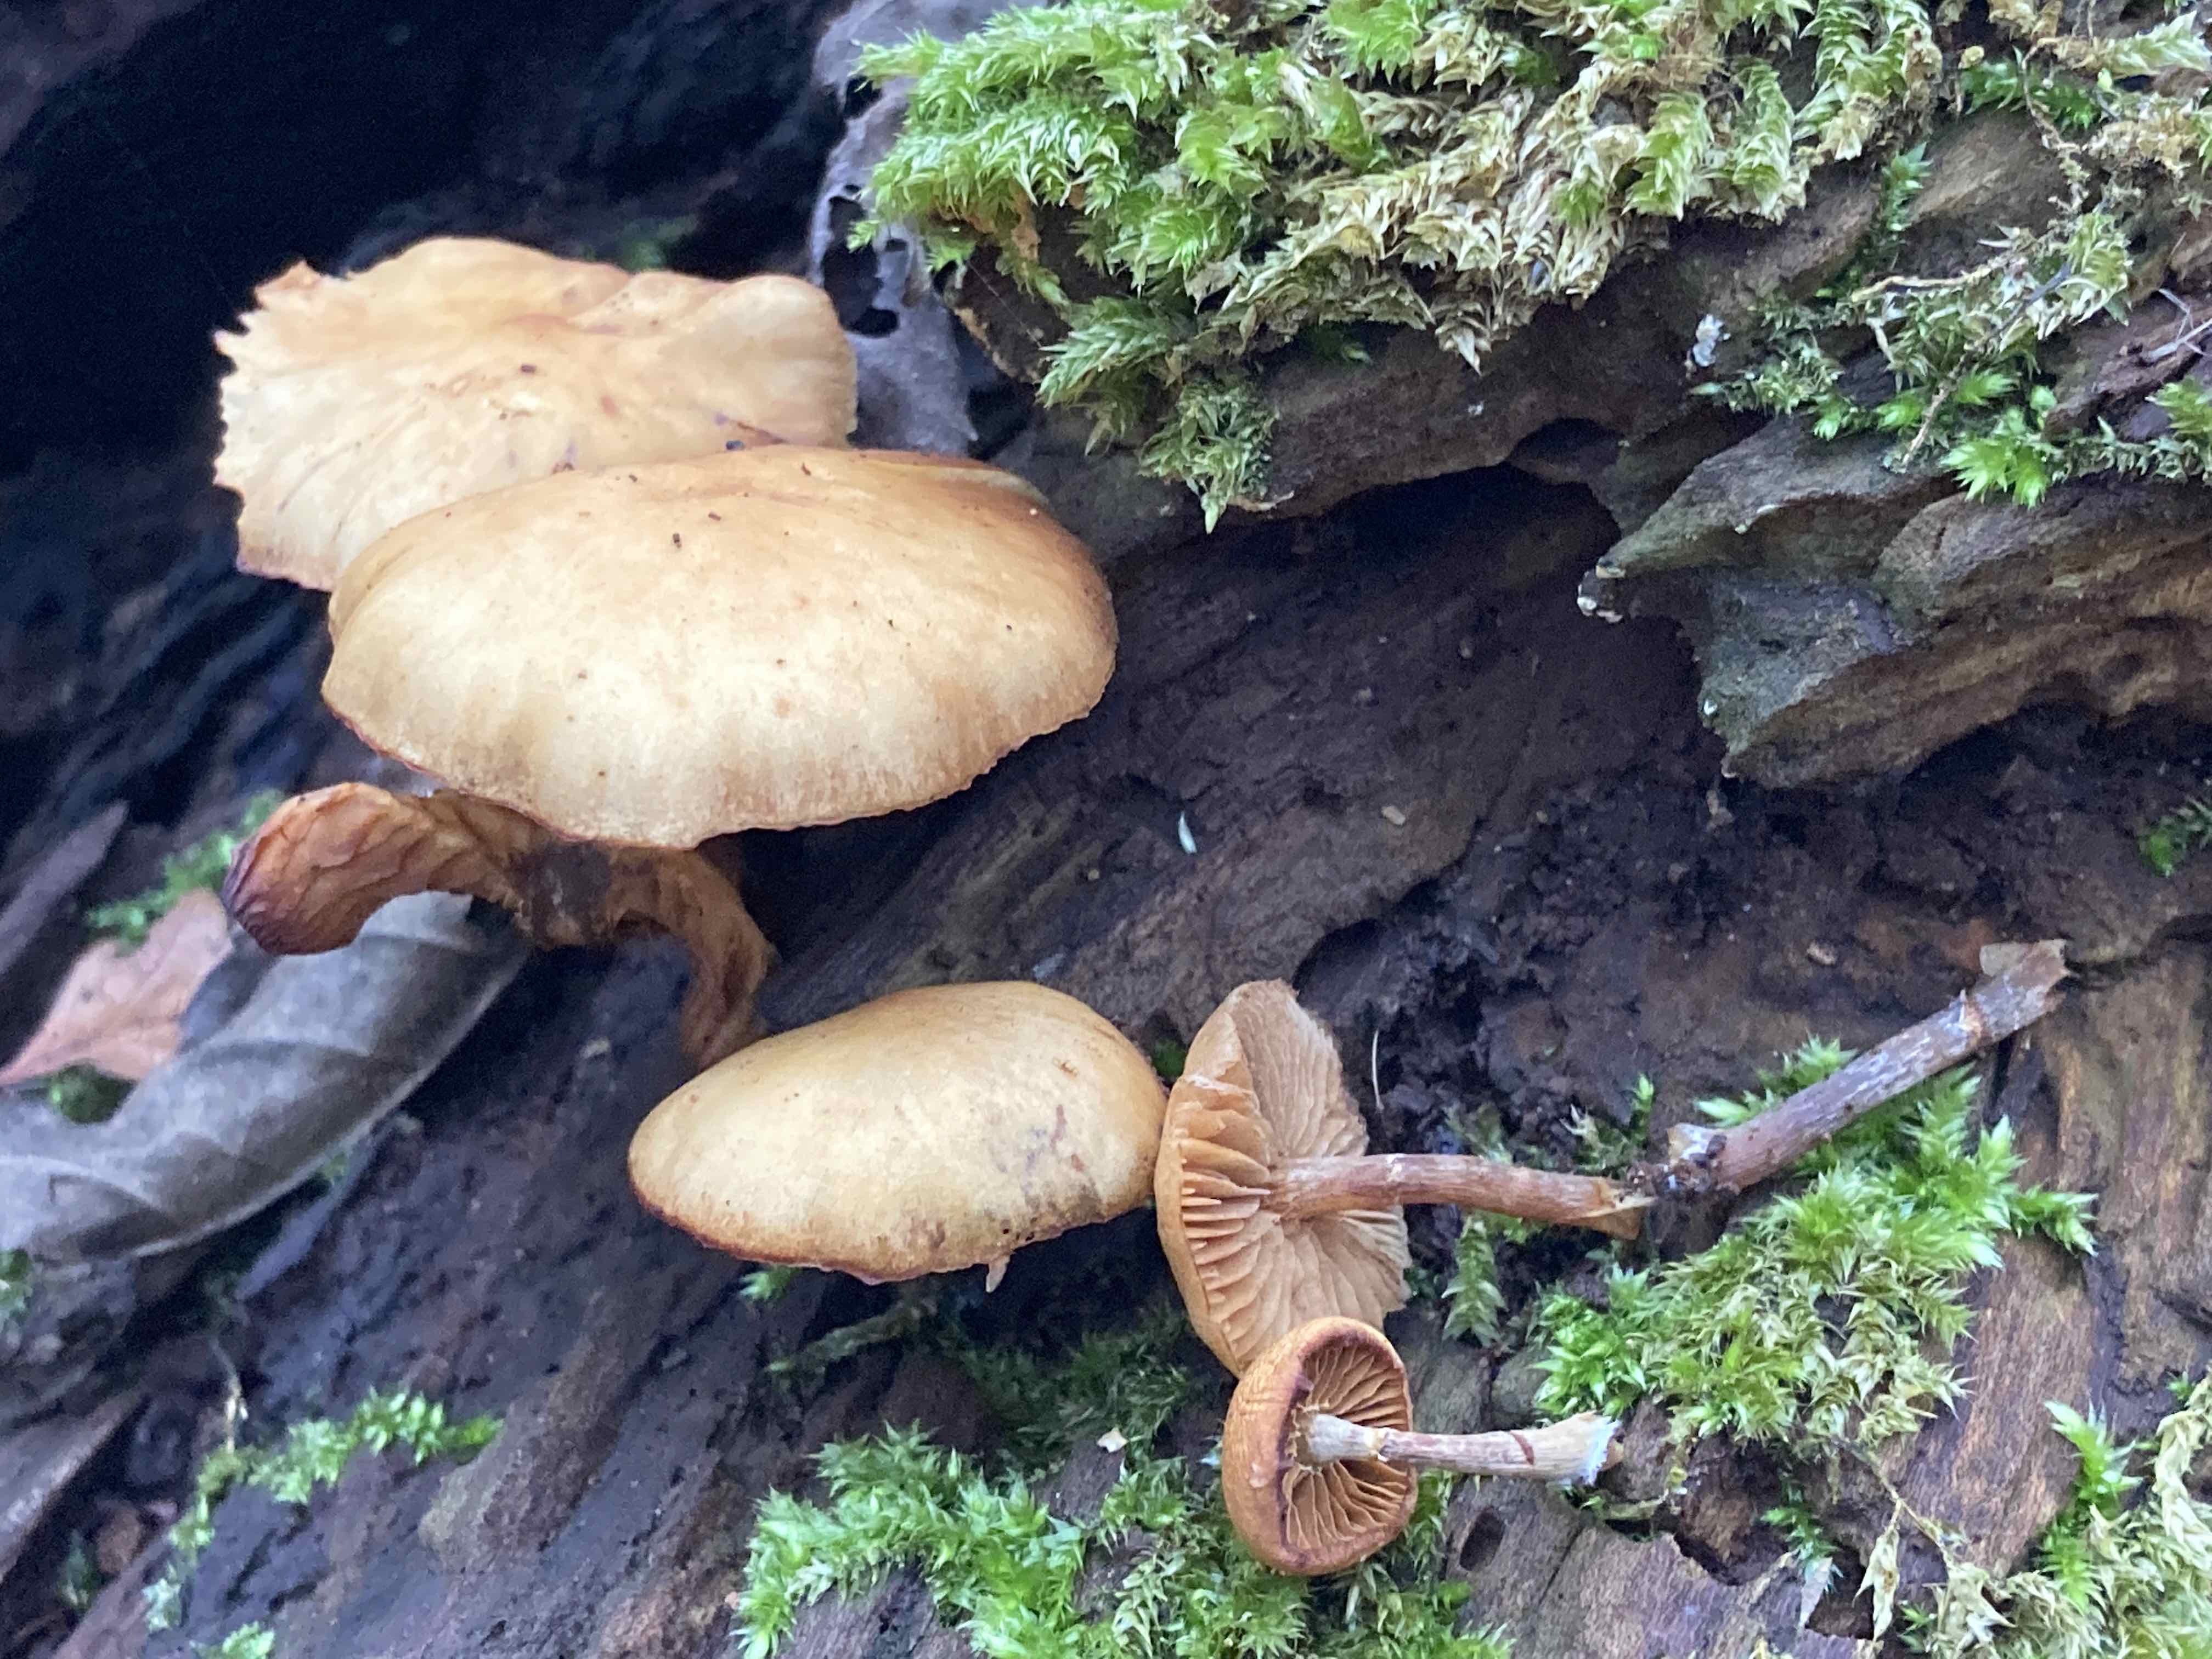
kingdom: Fungi
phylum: Basidiomycota
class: Agaricomycetes
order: Agaricales
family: Hymenogastraceae
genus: Galerina
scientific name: Galerina marginata
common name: randbæltet hjelmhat
